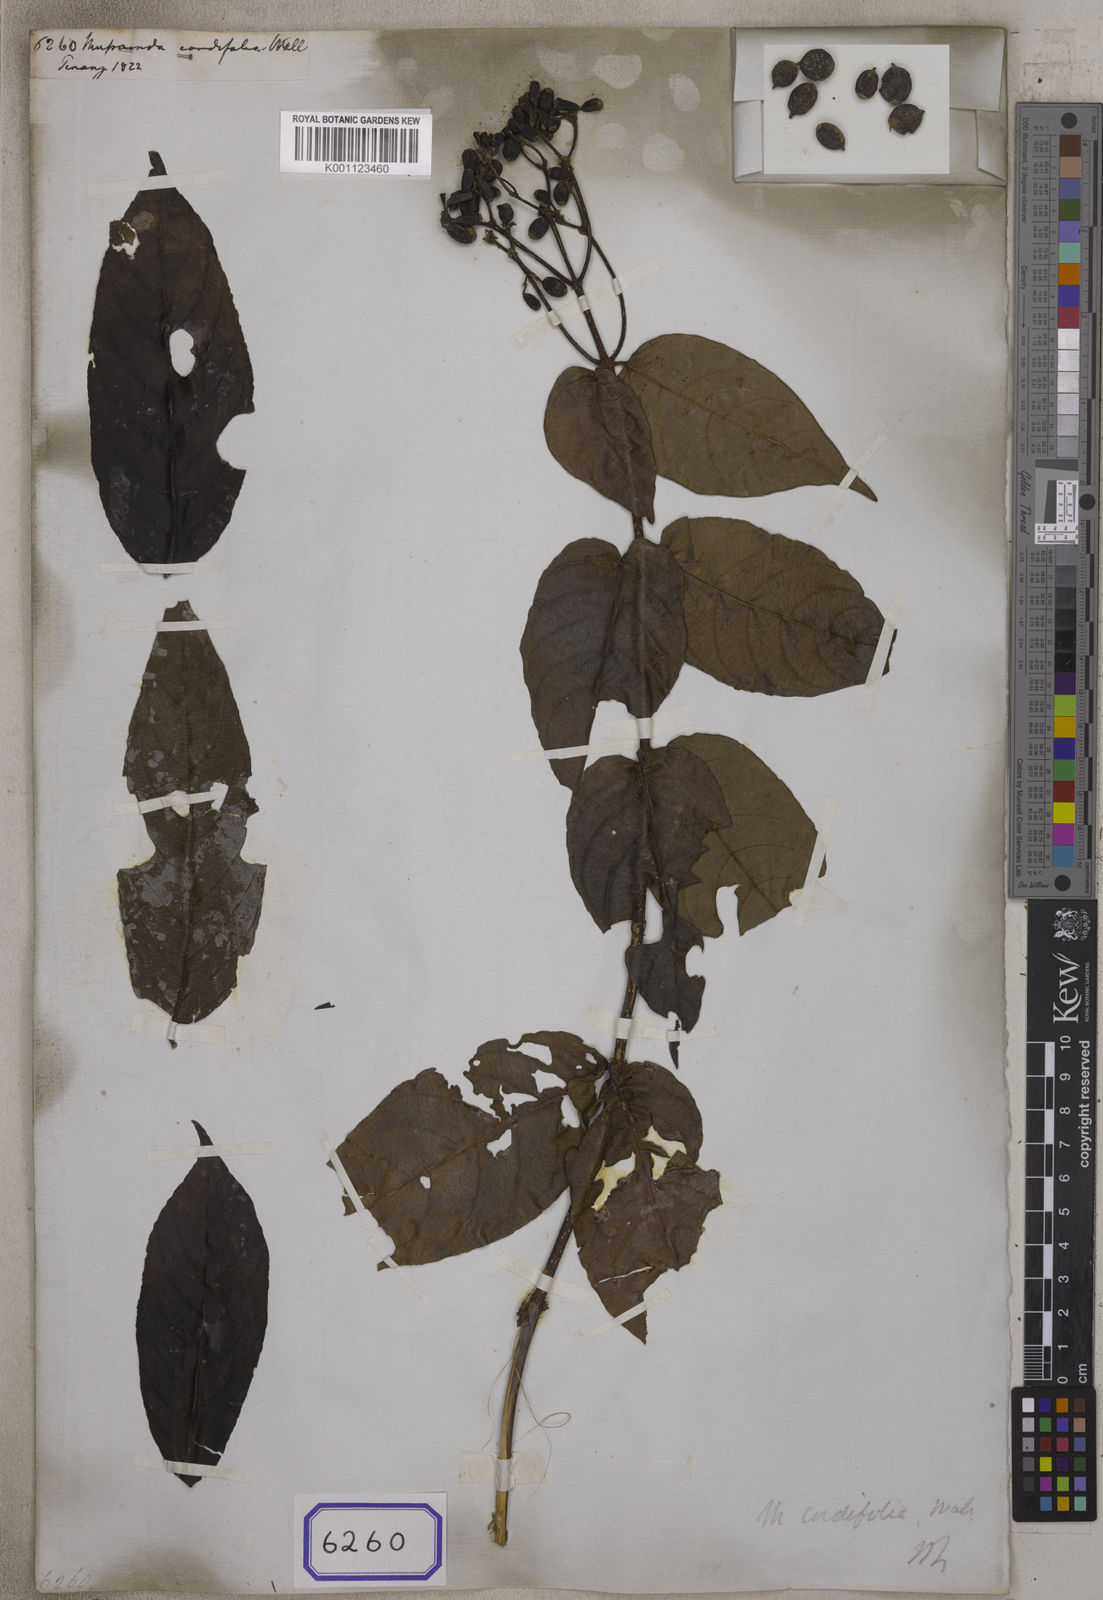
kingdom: Plantae
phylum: Tracheophyta
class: Magnoliopsida
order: Gentianales
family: Rubiaceae
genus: Mussaenda
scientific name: Mussaenda
